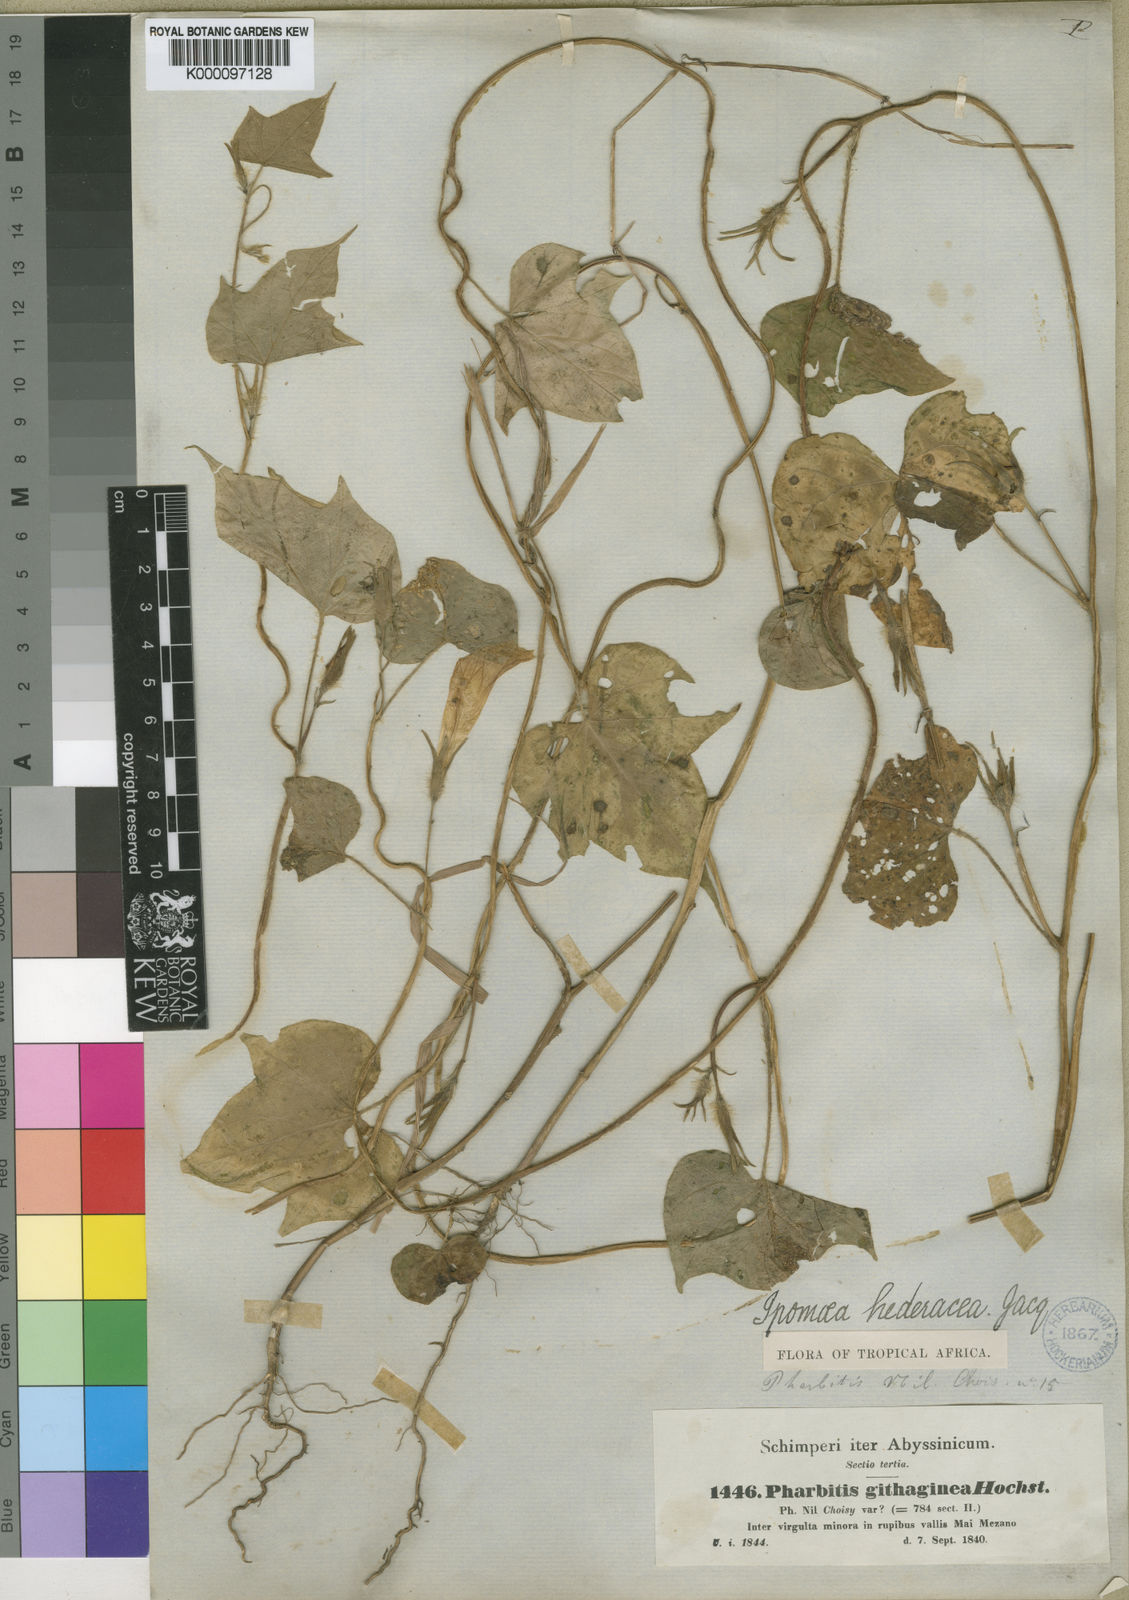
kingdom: Plantae
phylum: Tracheophyta
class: Magnoliopsida
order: Solanales
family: Convolvulaceae
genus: Ipomoea
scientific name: Ipomoea hederacea
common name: Ivy-leaved morning-glory
